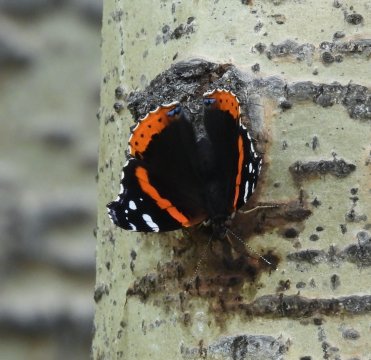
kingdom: Animalia
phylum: Arthropoda
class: Insecta
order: Lepidoptera
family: Nymphalidae
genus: Vanessa
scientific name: Vanessa atalanta
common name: Red Admiral
